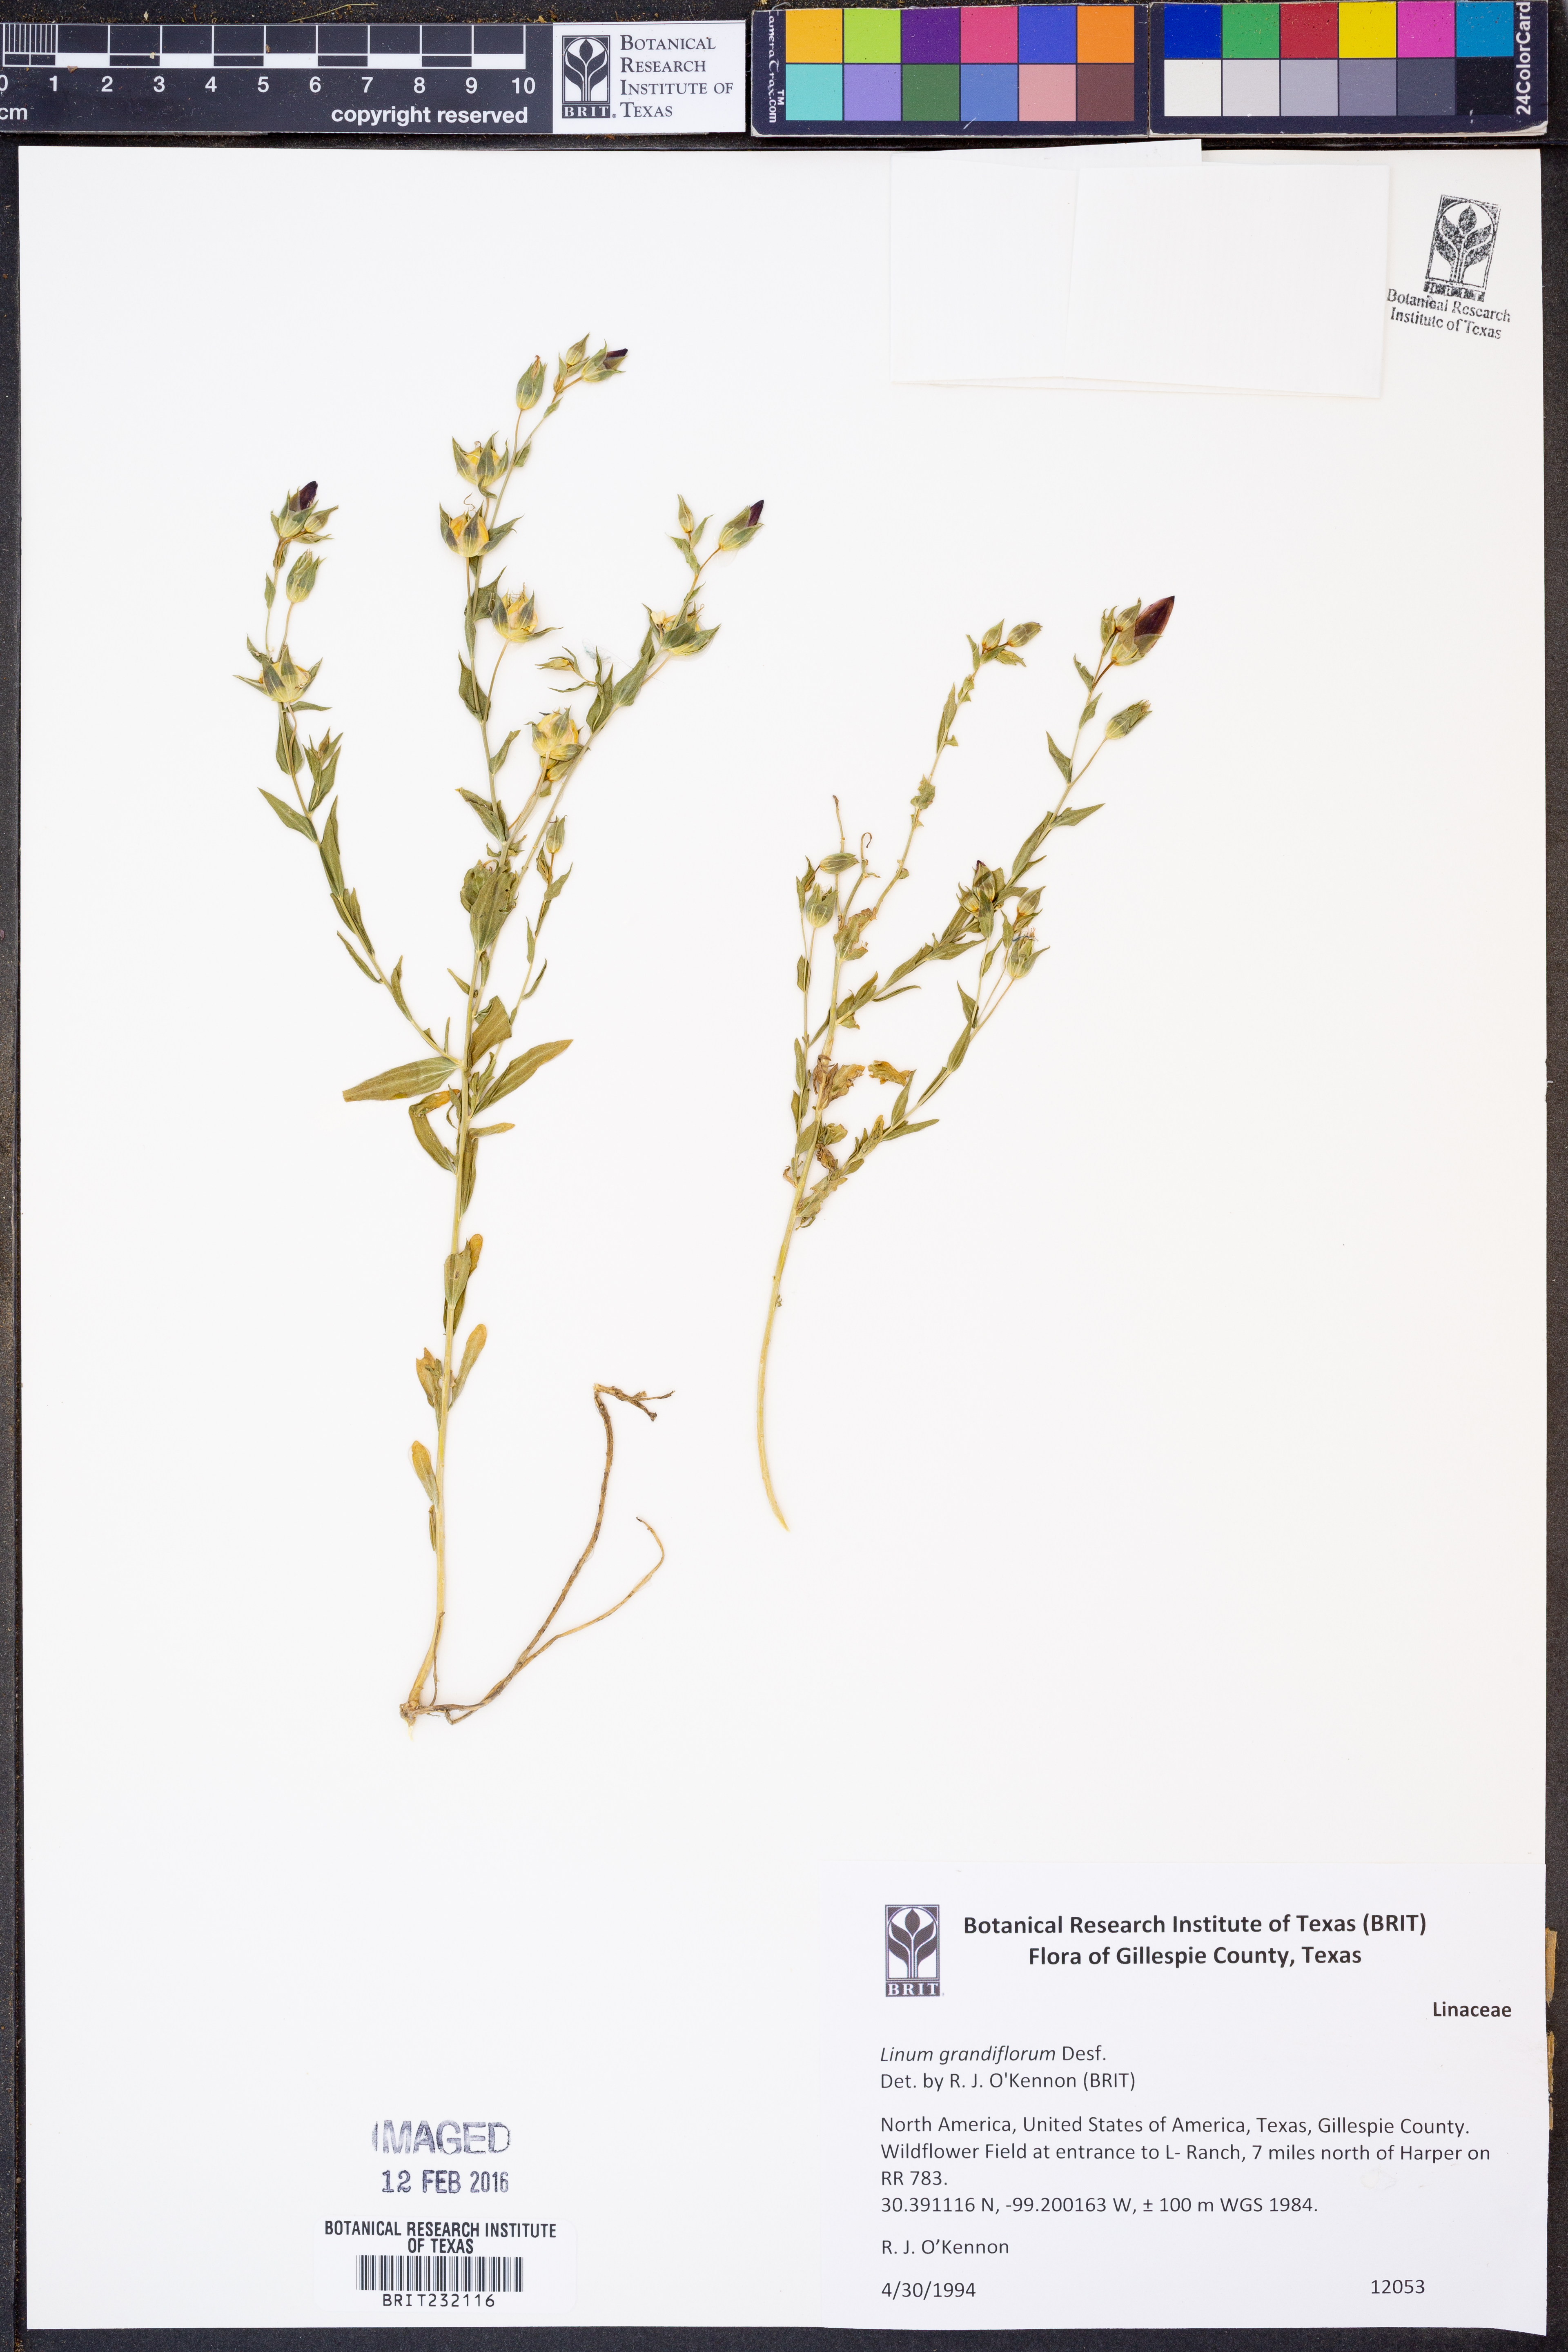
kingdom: Plantae
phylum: Tracheophyta
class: Magnoliopsida
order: Malpighiales
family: Linaceae
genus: Linum
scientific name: Linum grandiflorum
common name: Crimson flax
